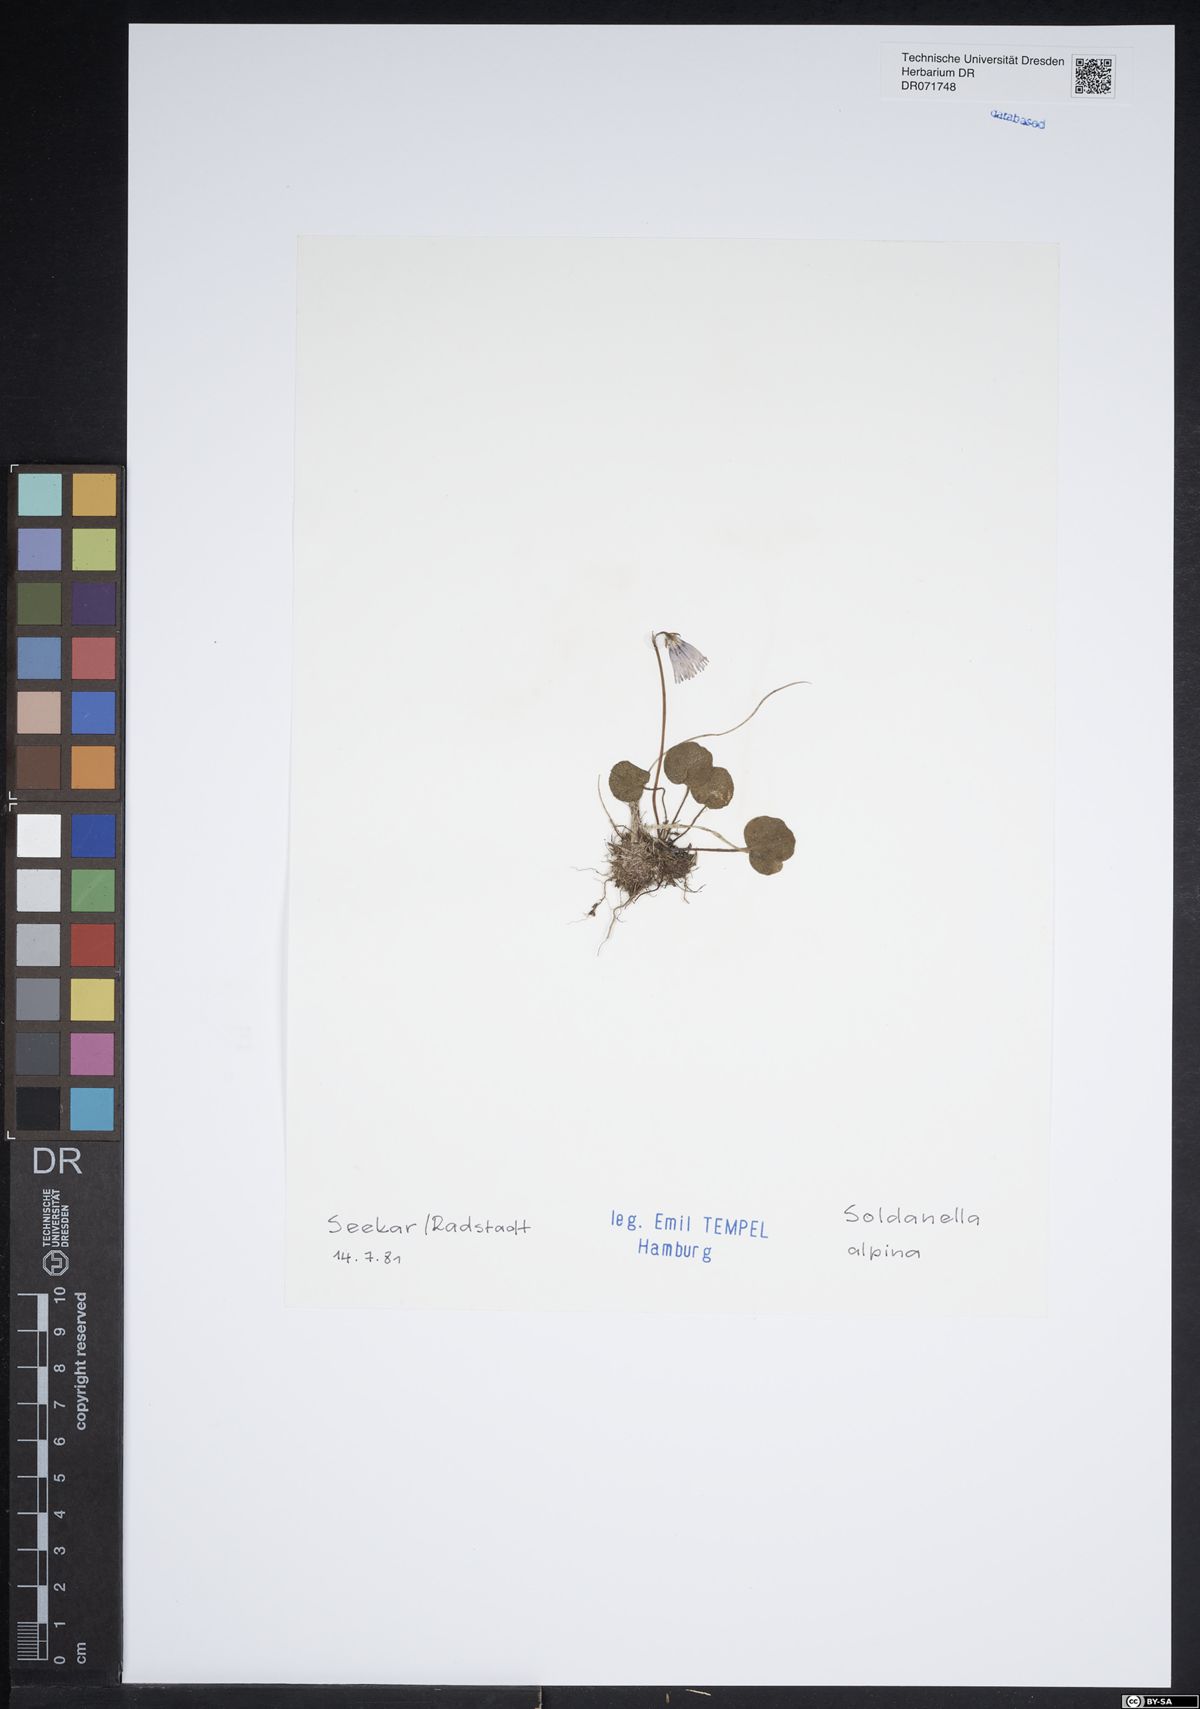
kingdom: Plantae
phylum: Tracheophyta
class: Magnoliopsida
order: Ericales
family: Primulaceae
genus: Soldanella
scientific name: Soldanella alpina
